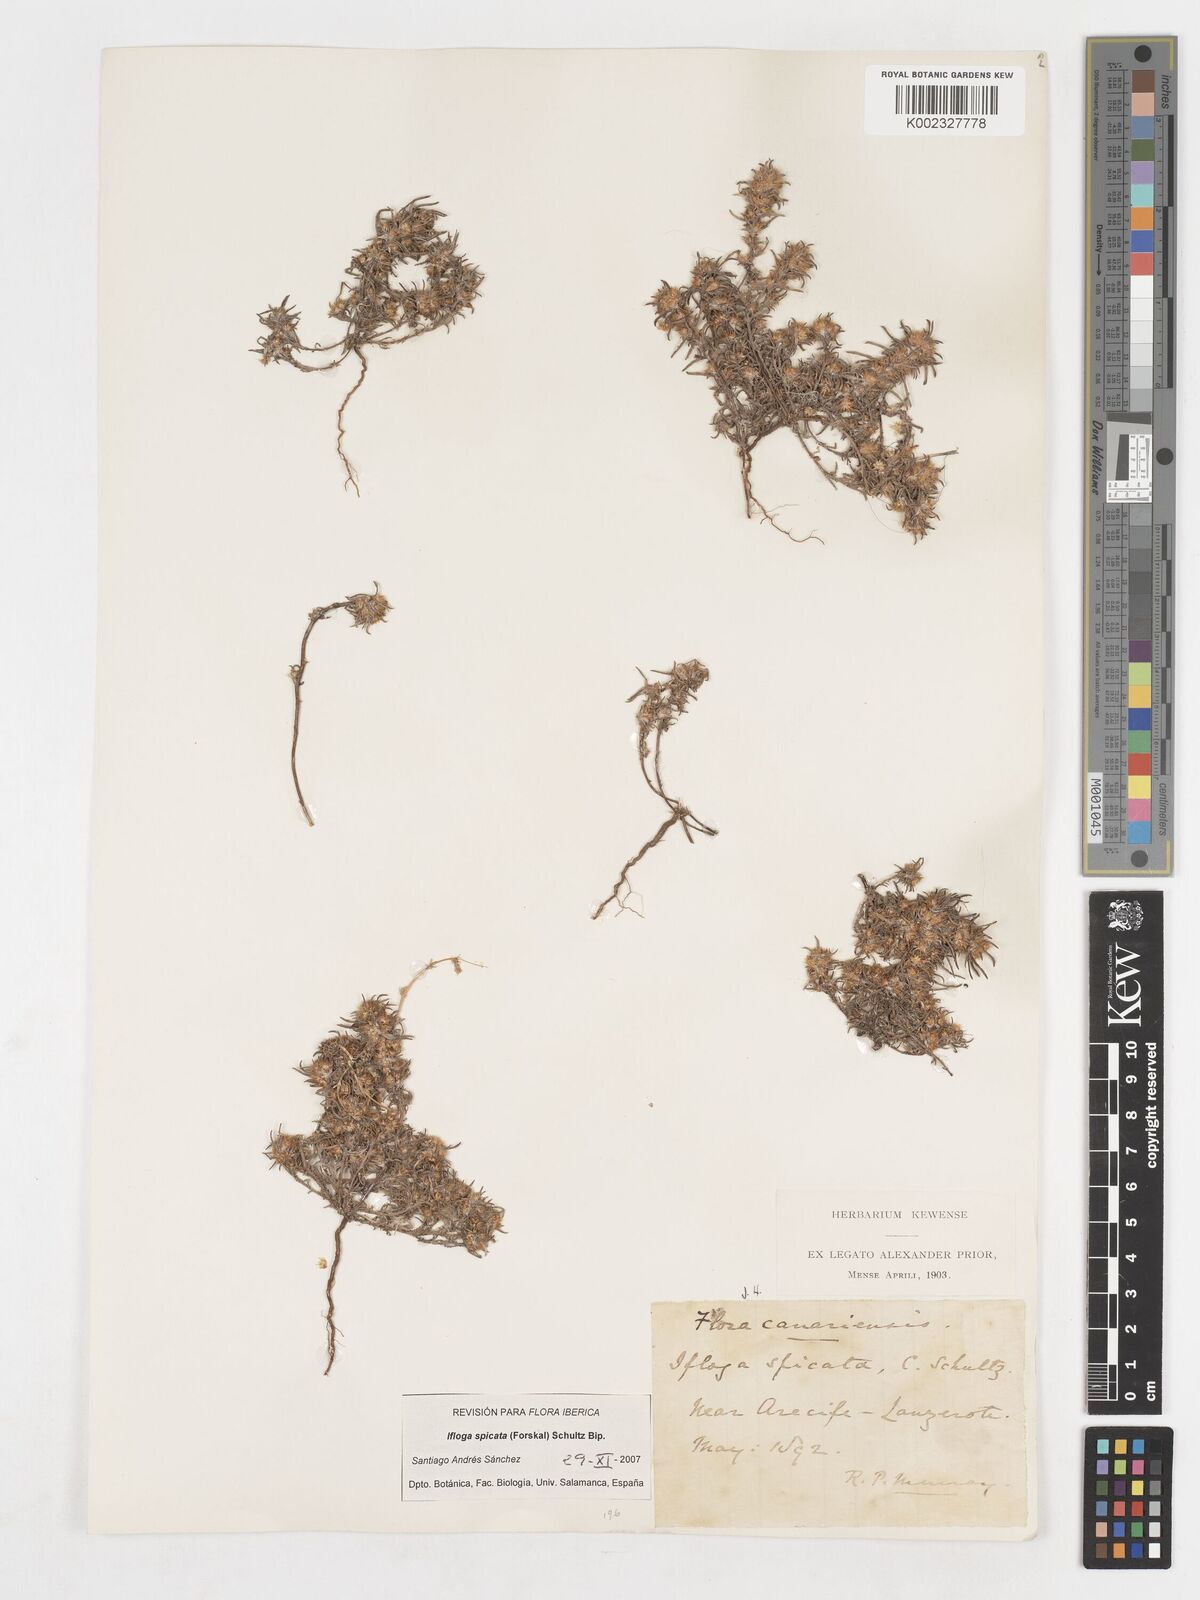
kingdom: Plantae
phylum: Tracheophyta
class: Magnoliopsida
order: Asterales
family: Asteraceae
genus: Ifloga
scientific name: Ifloga spicata
